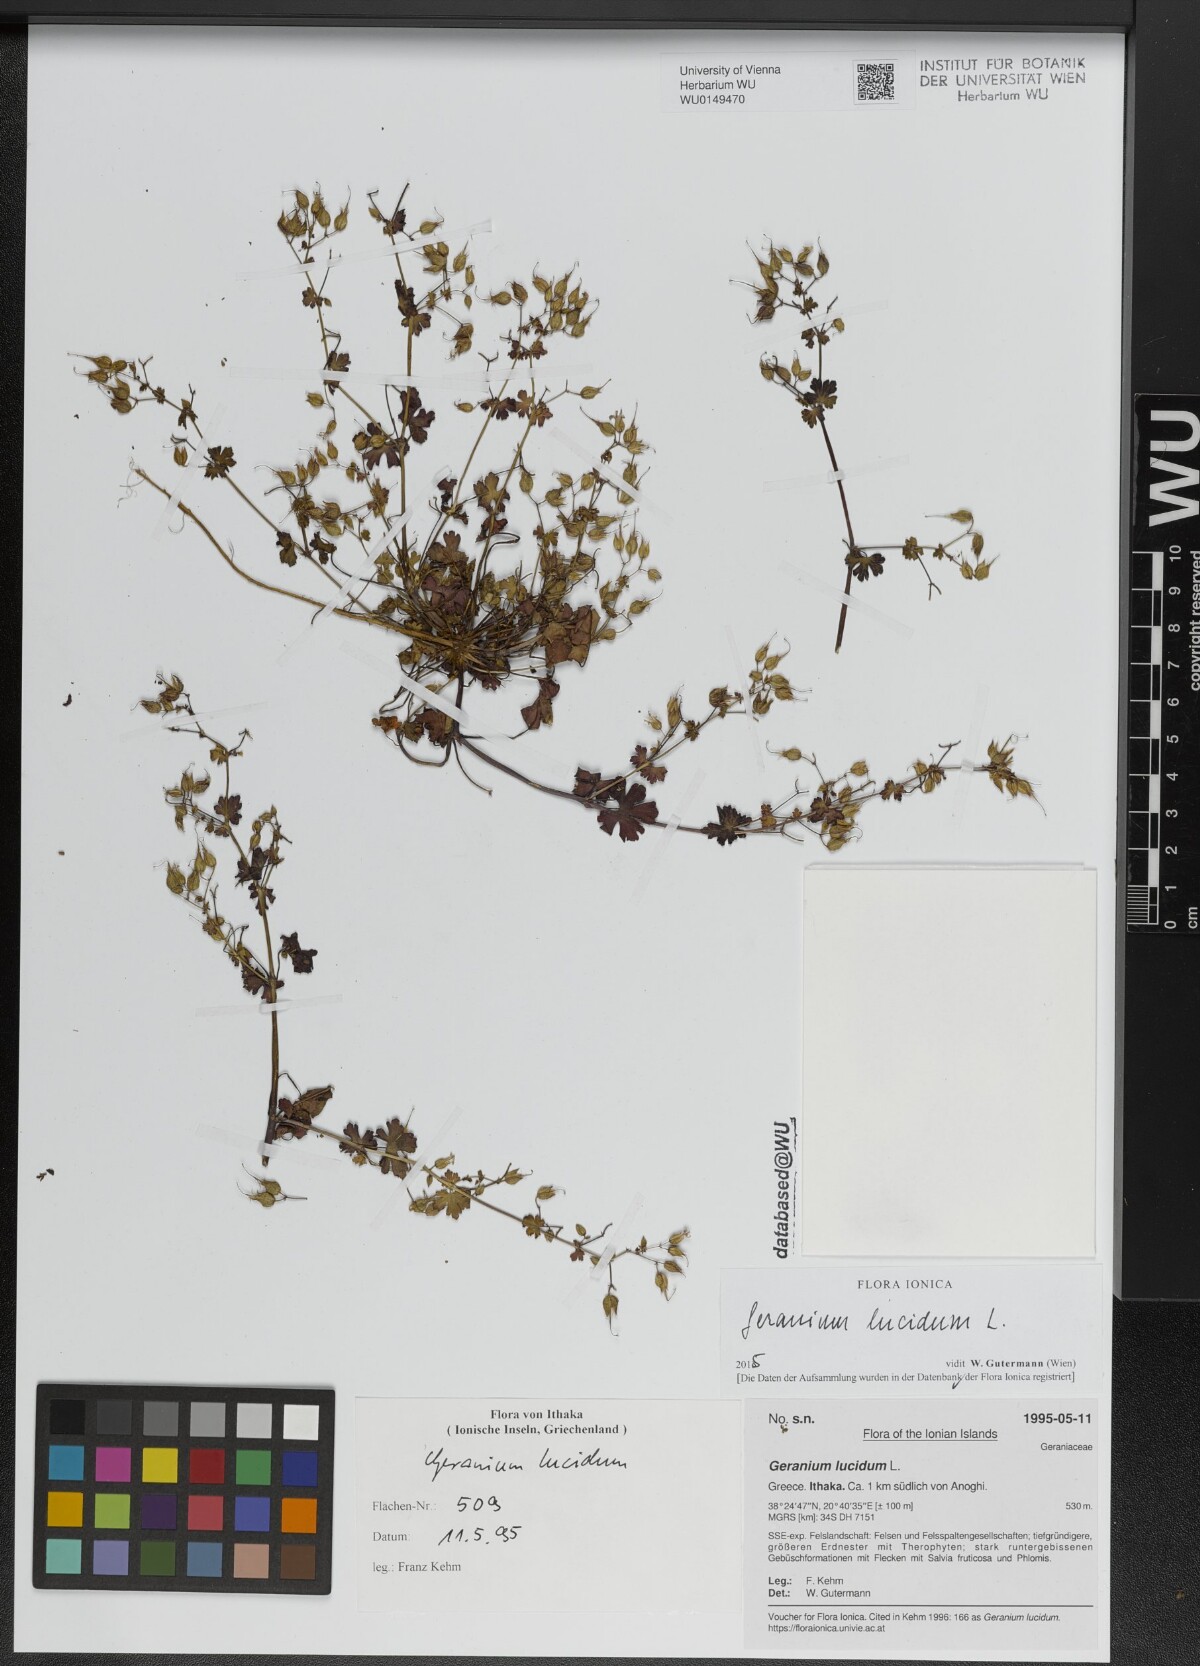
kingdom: Plantae
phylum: Tracheophyta
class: Magnoliopsida
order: Geraniales
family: Geraniaceae
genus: Geranium
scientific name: Geranium lucidum
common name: Shining crane's-bill
